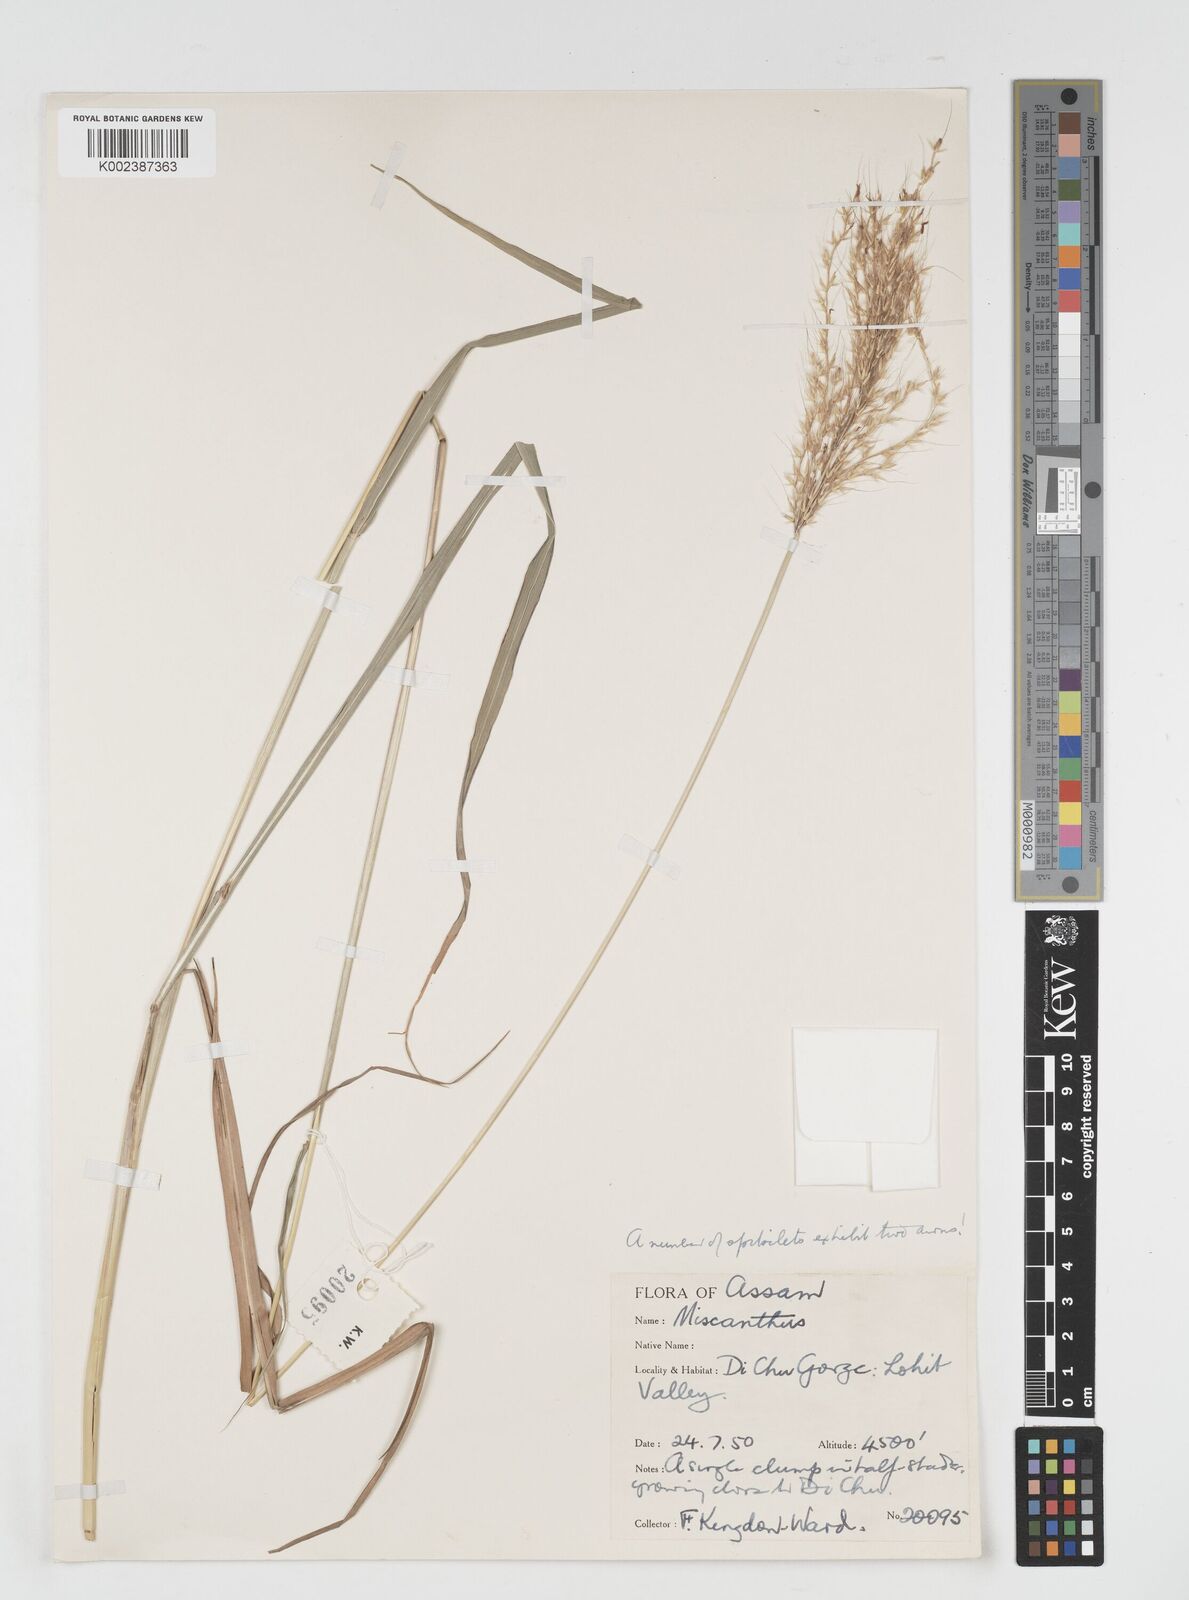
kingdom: Plantae
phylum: Tracheophyta
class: Liliopsida
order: Poales
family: Poaceae
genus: Miscanthus
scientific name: Miscanthus nudipes
